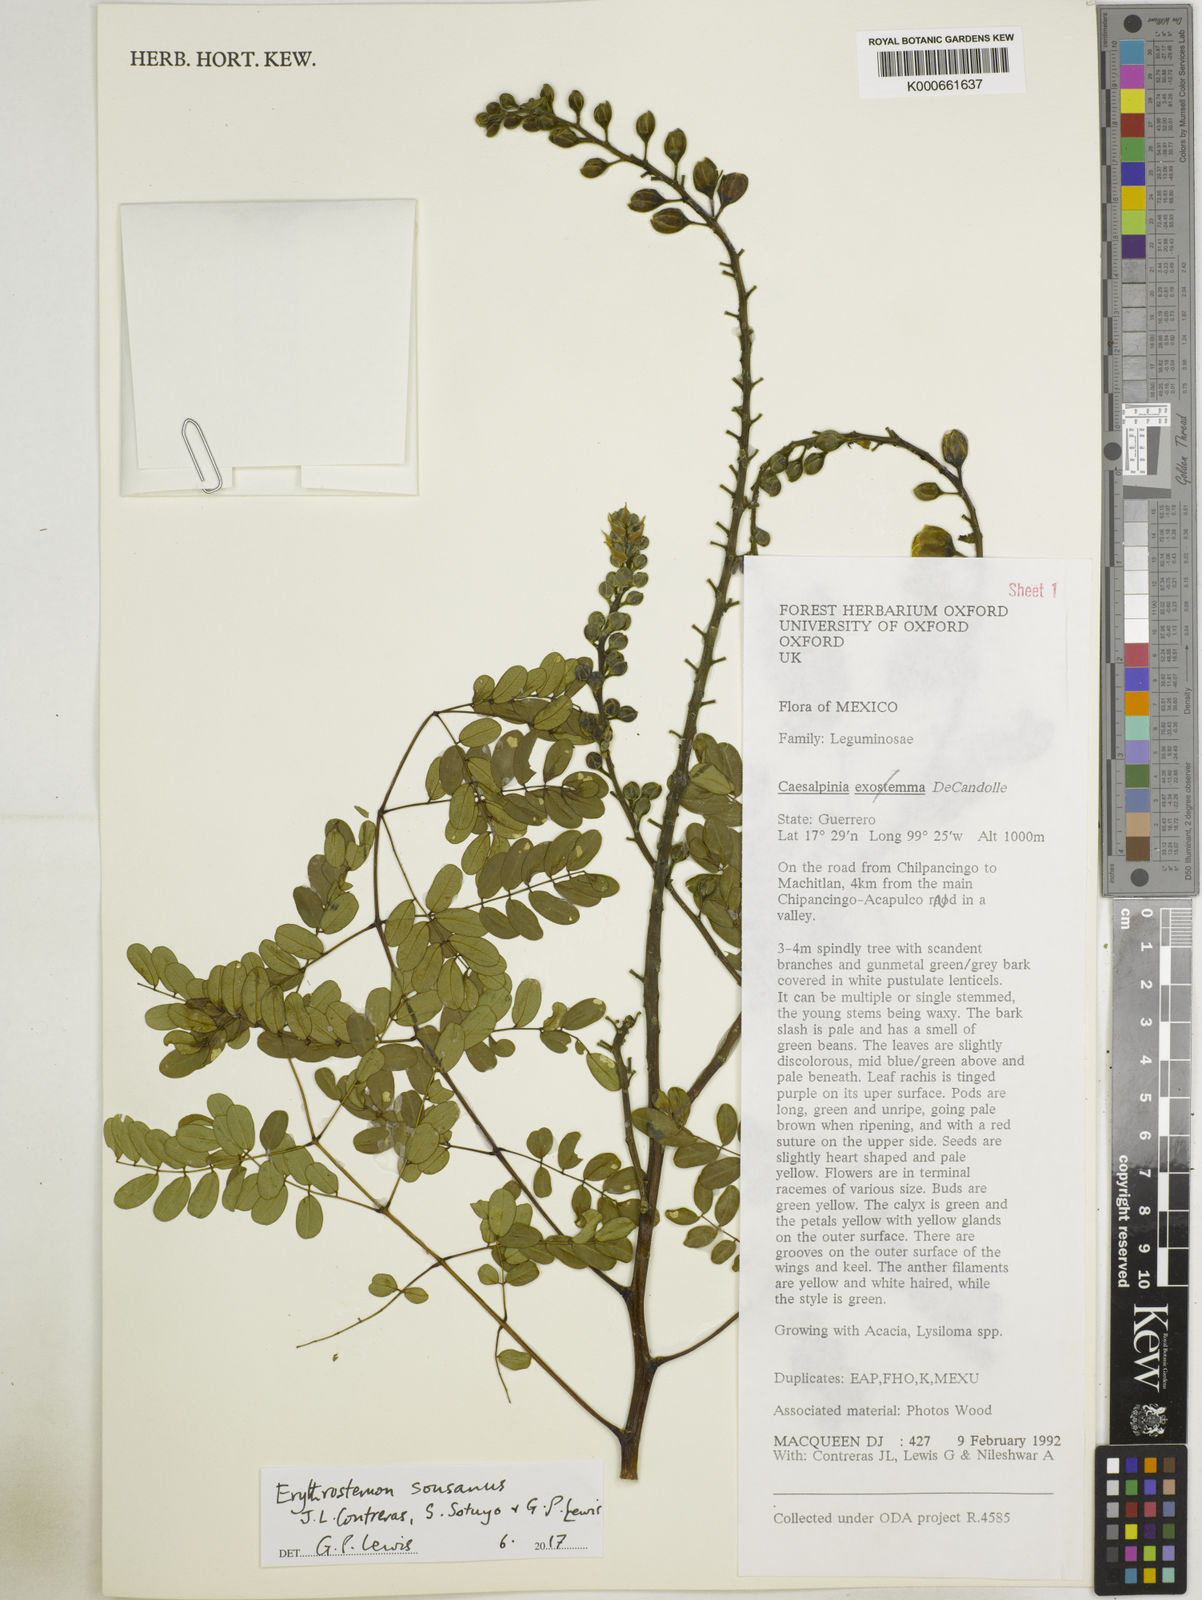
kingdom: Plantae
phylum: Tracheophyta
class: Magnoliopsida
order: Fabales
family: Fabaceae
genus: Caesalpinia
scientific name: Caesalpinia
